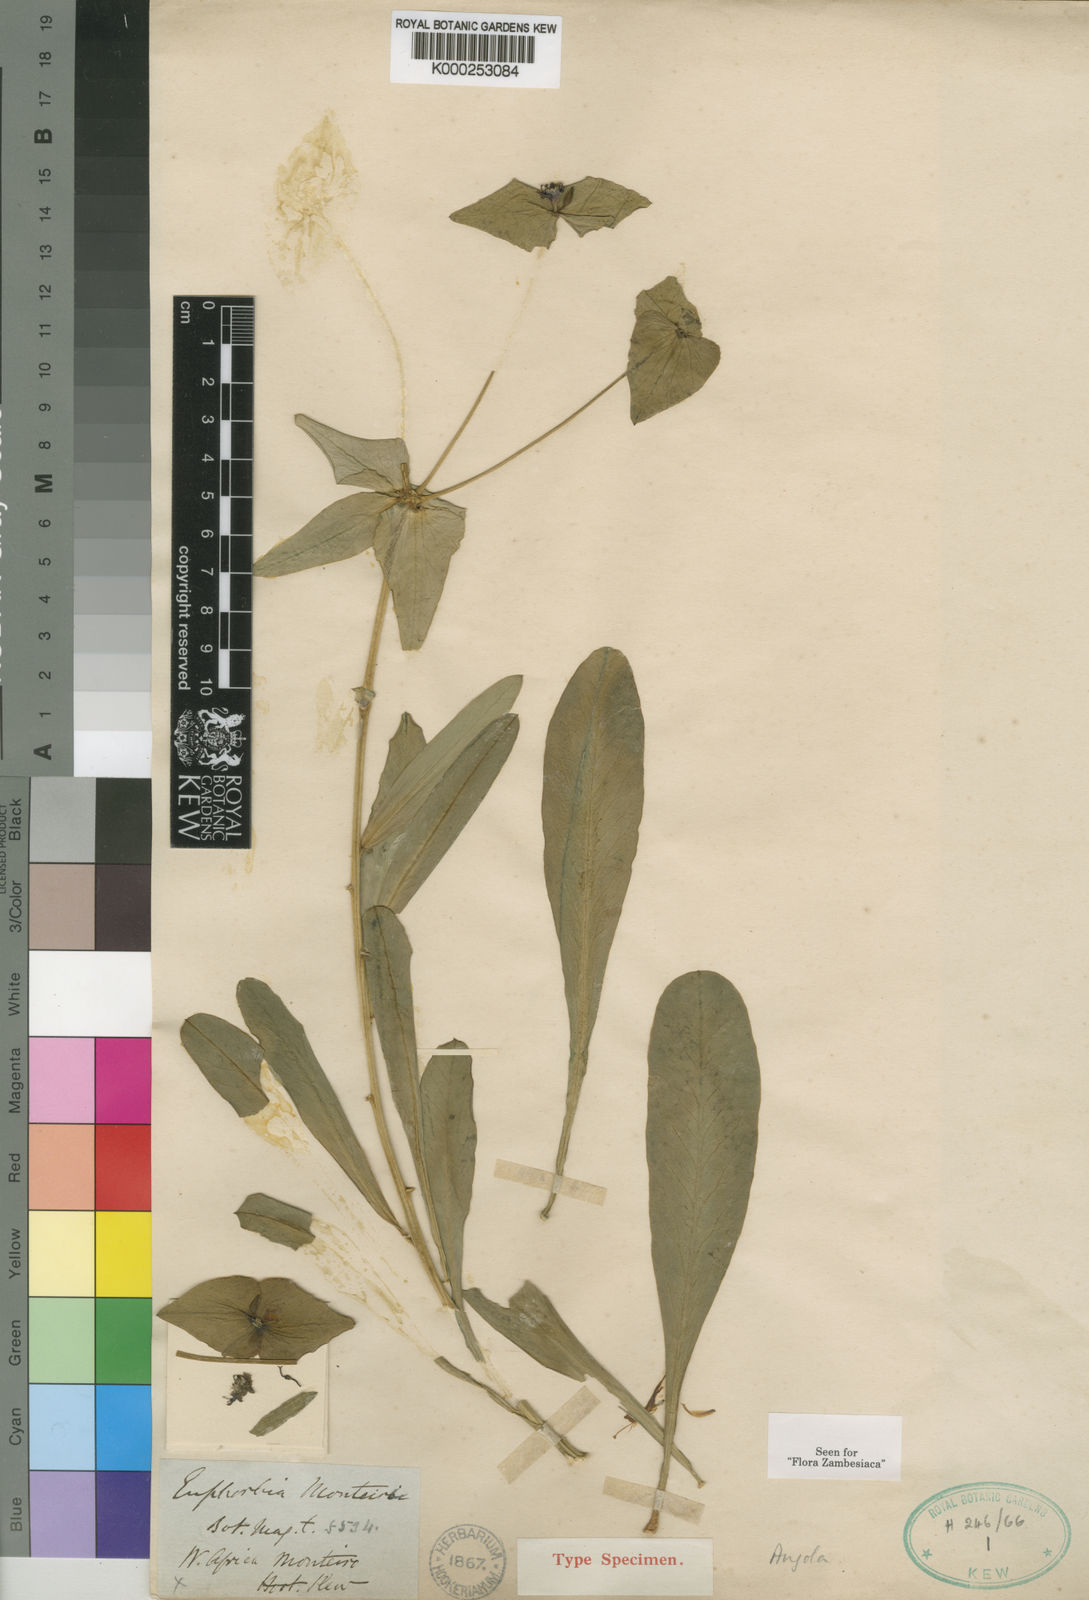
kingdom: Plantae
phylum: Tracheophyta
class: Magnoliopsida
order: Malpighiales
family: Euphorbiaceae
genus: Euphorbia
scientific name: Euphorbia monteiroi
